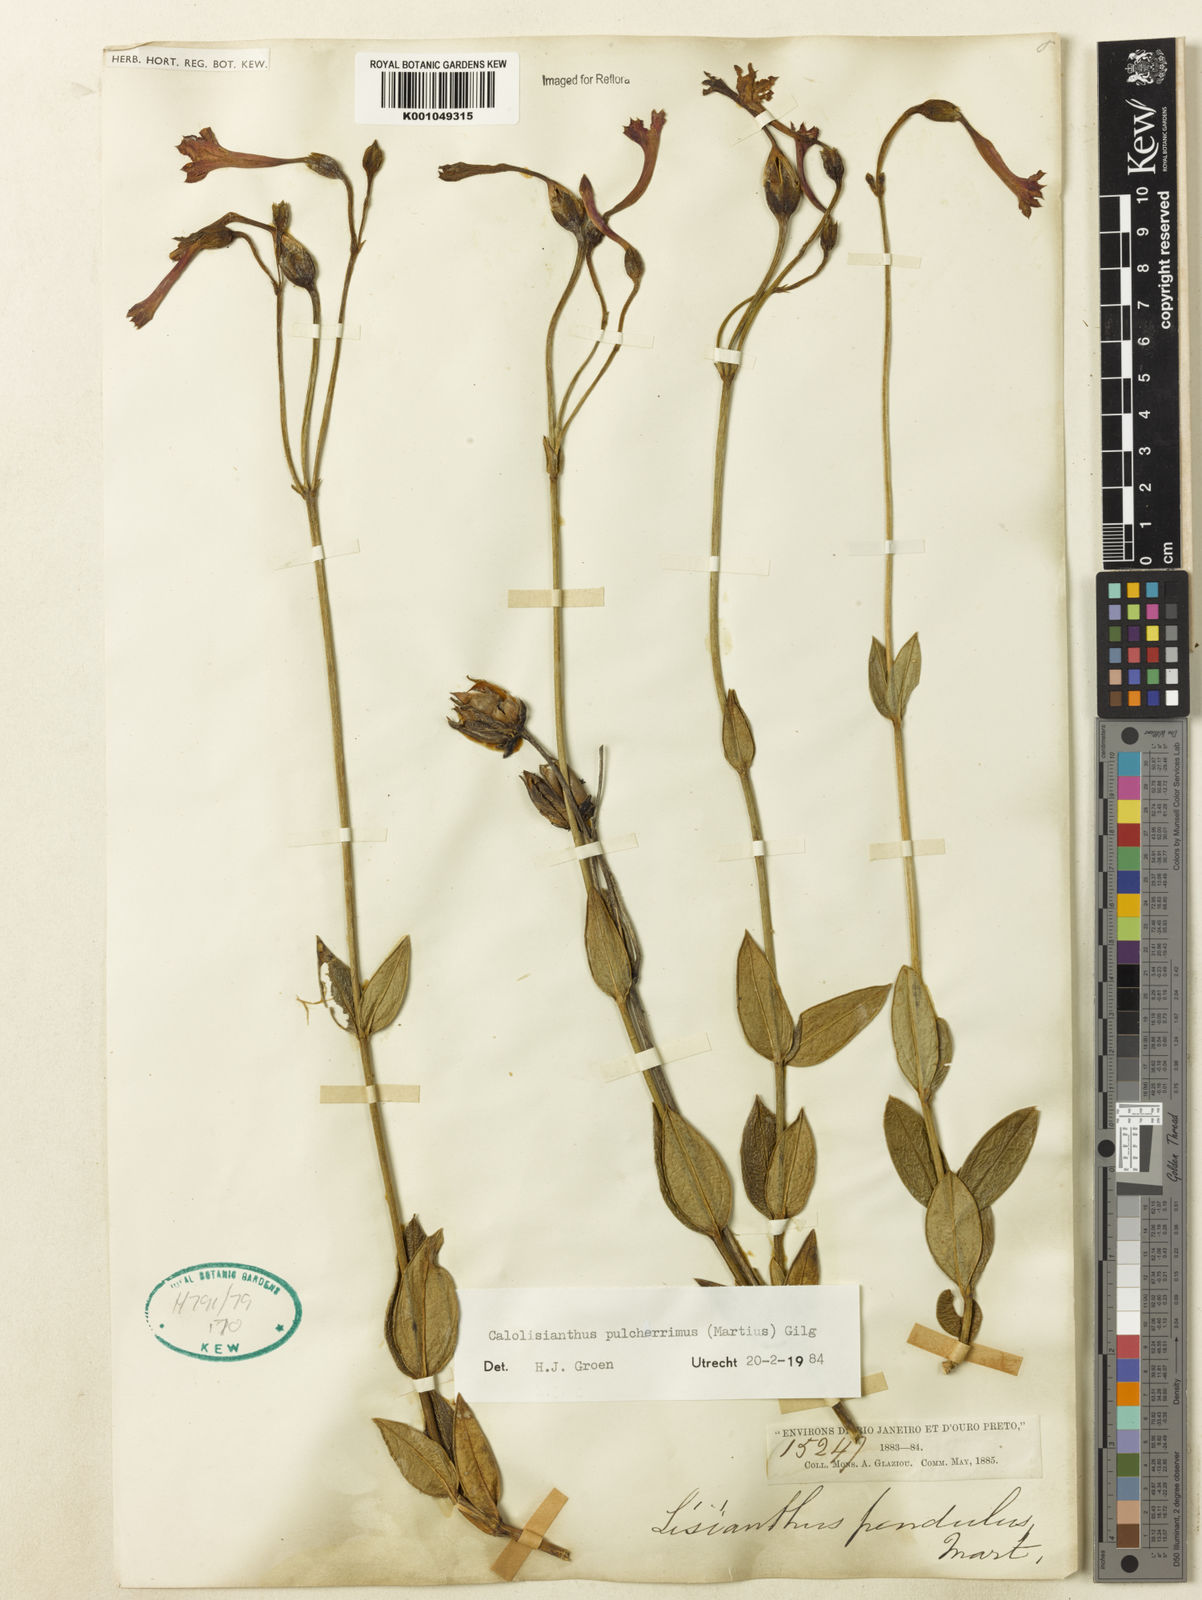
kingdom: Plantae
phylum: Tracheophyta
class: Magnoliopsida
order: Gentianales
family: Gentianaceae
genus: Calolisianthus
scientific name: Calolisianthus pulcherrimus
